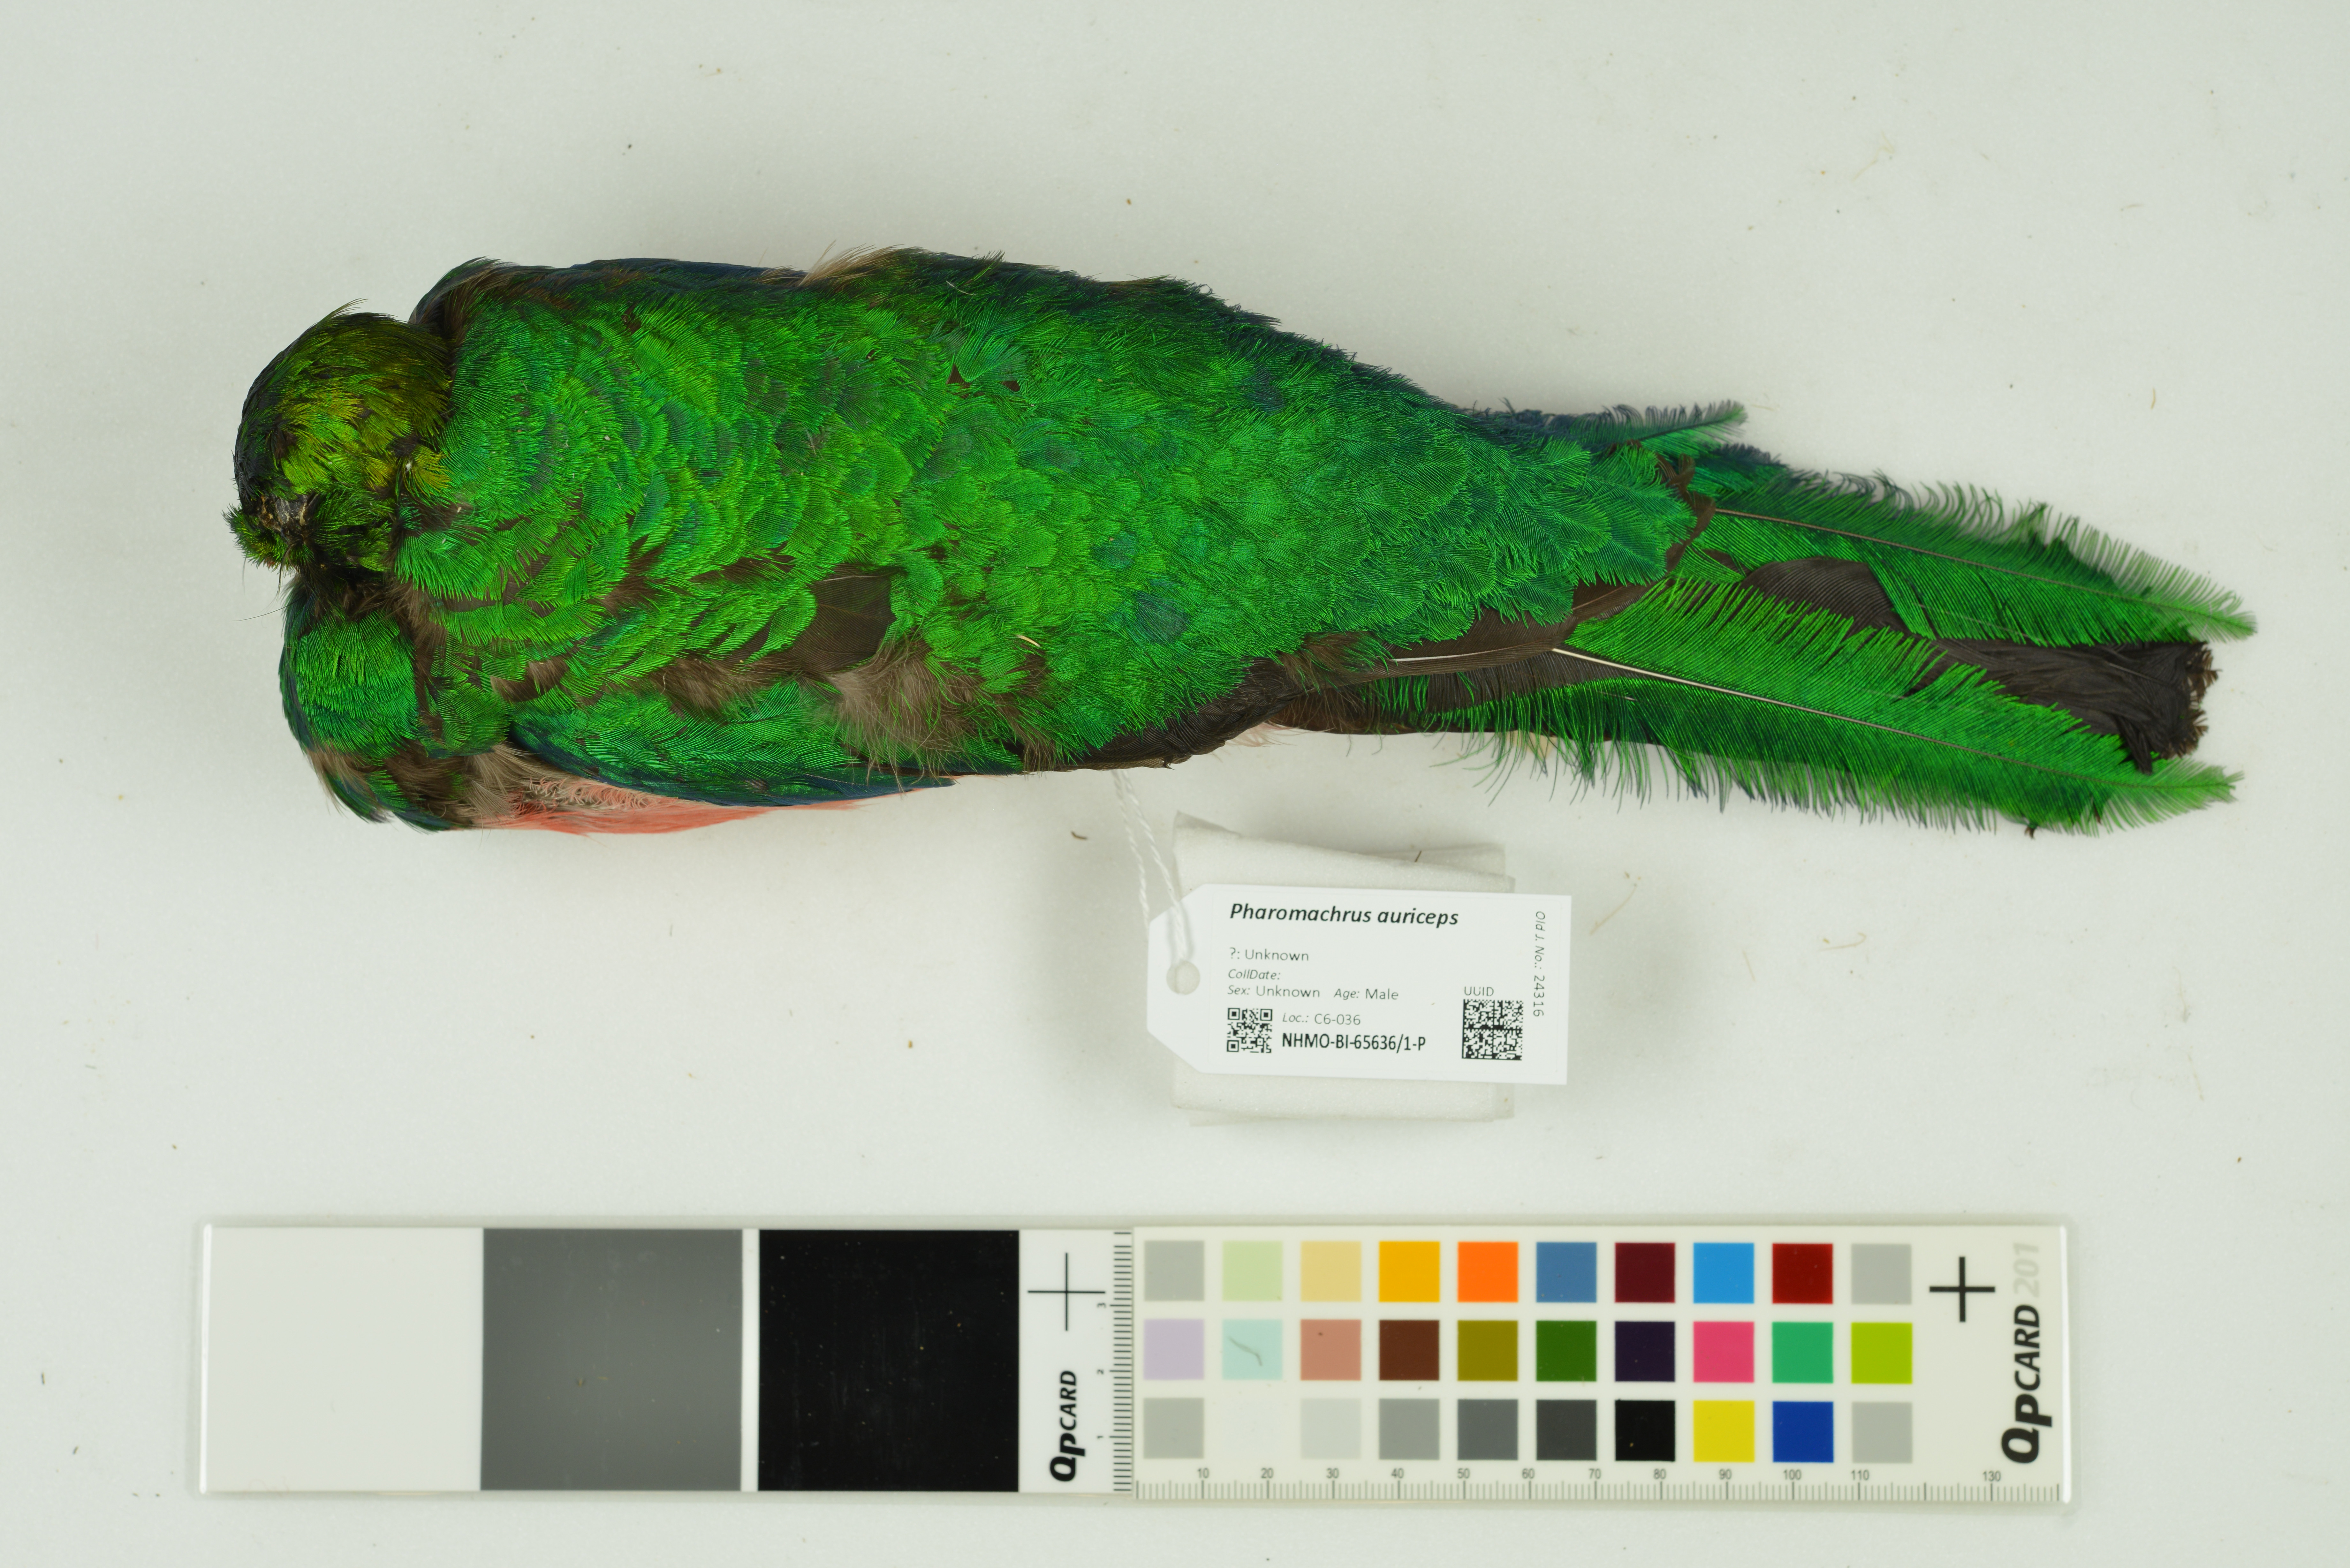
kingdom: Animalia
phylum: Chordata
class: Aves
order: Trogoniformes
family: Trogonidae
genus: Pharomachrus
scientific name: Pharomachrus auriceps
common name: Golden-headed quetzal
